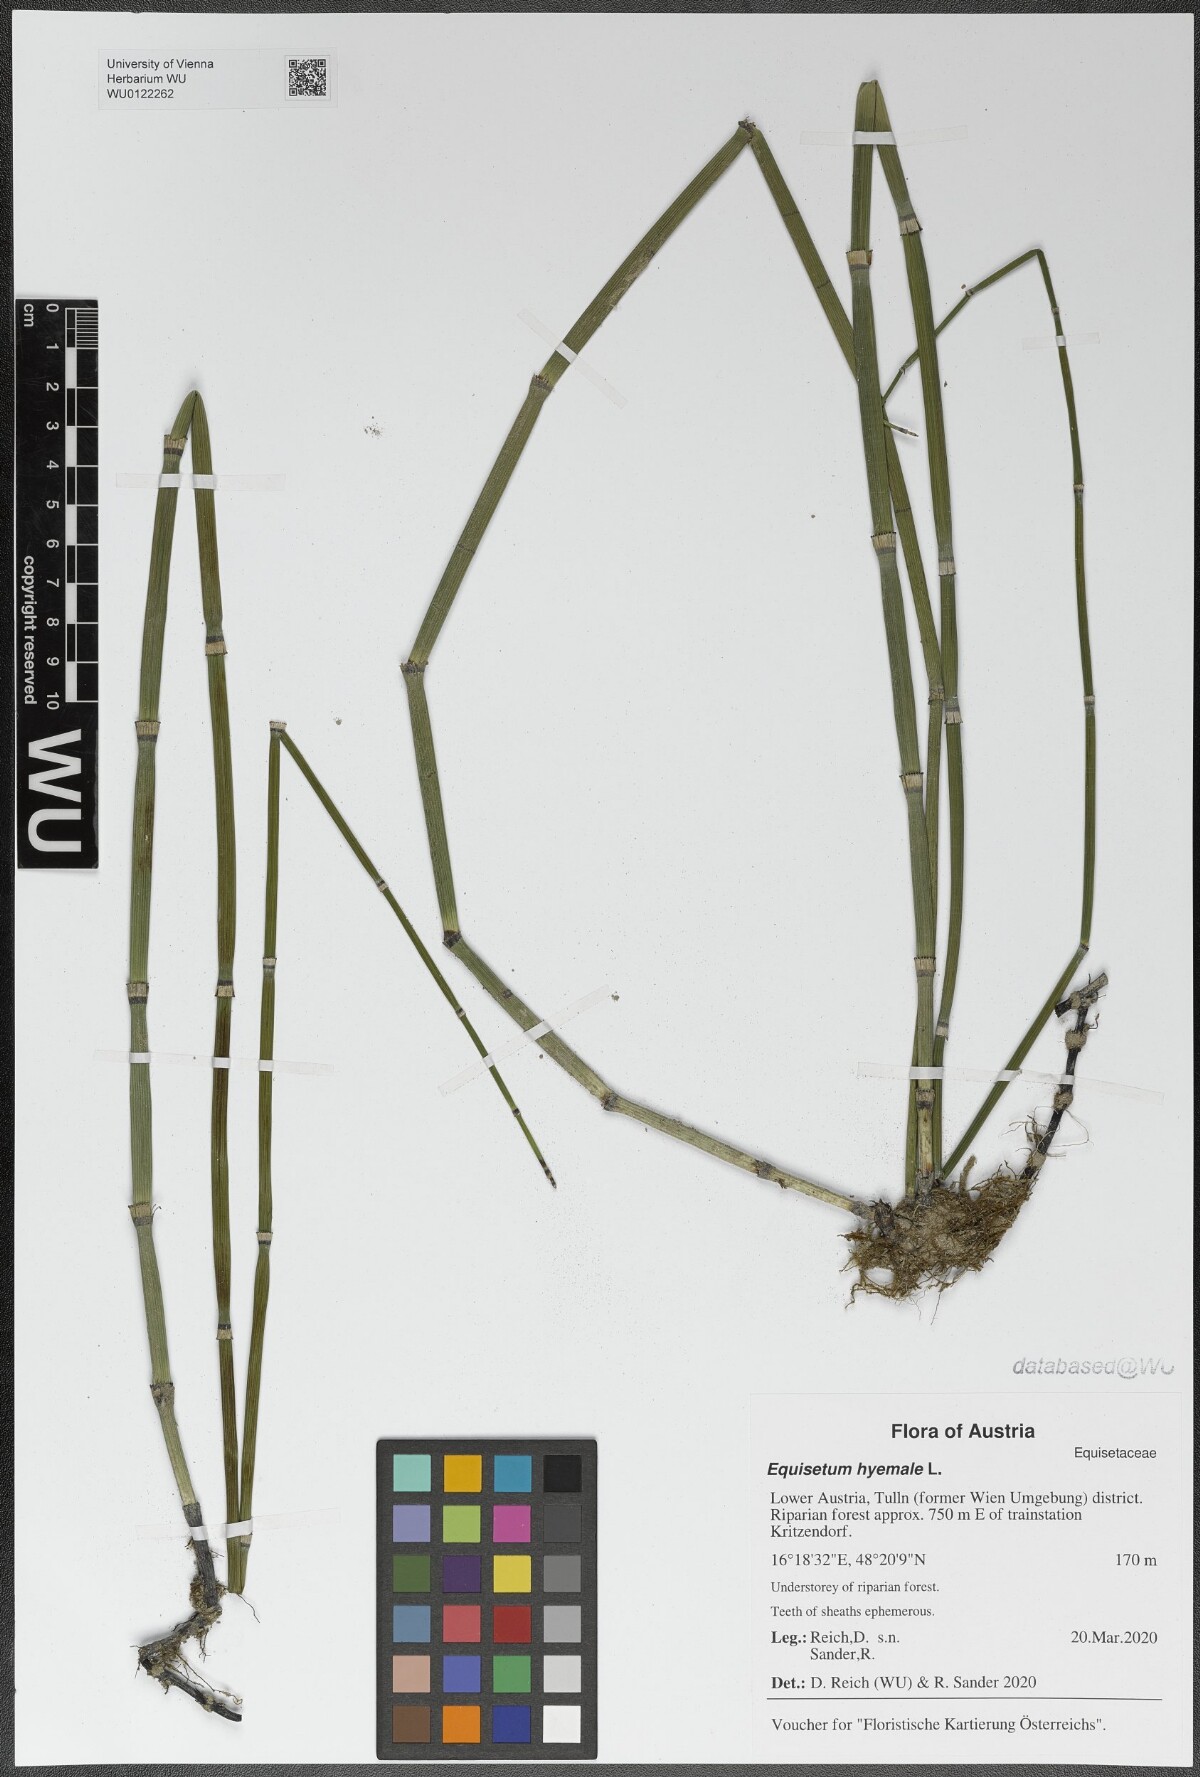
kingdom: Plantae
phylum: Tracheophyta
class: Polypodiopsida
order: Equisetales
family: Equisetaceae
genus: Equisetum
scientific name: Equisetum hyemale
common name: Rough horsetail
